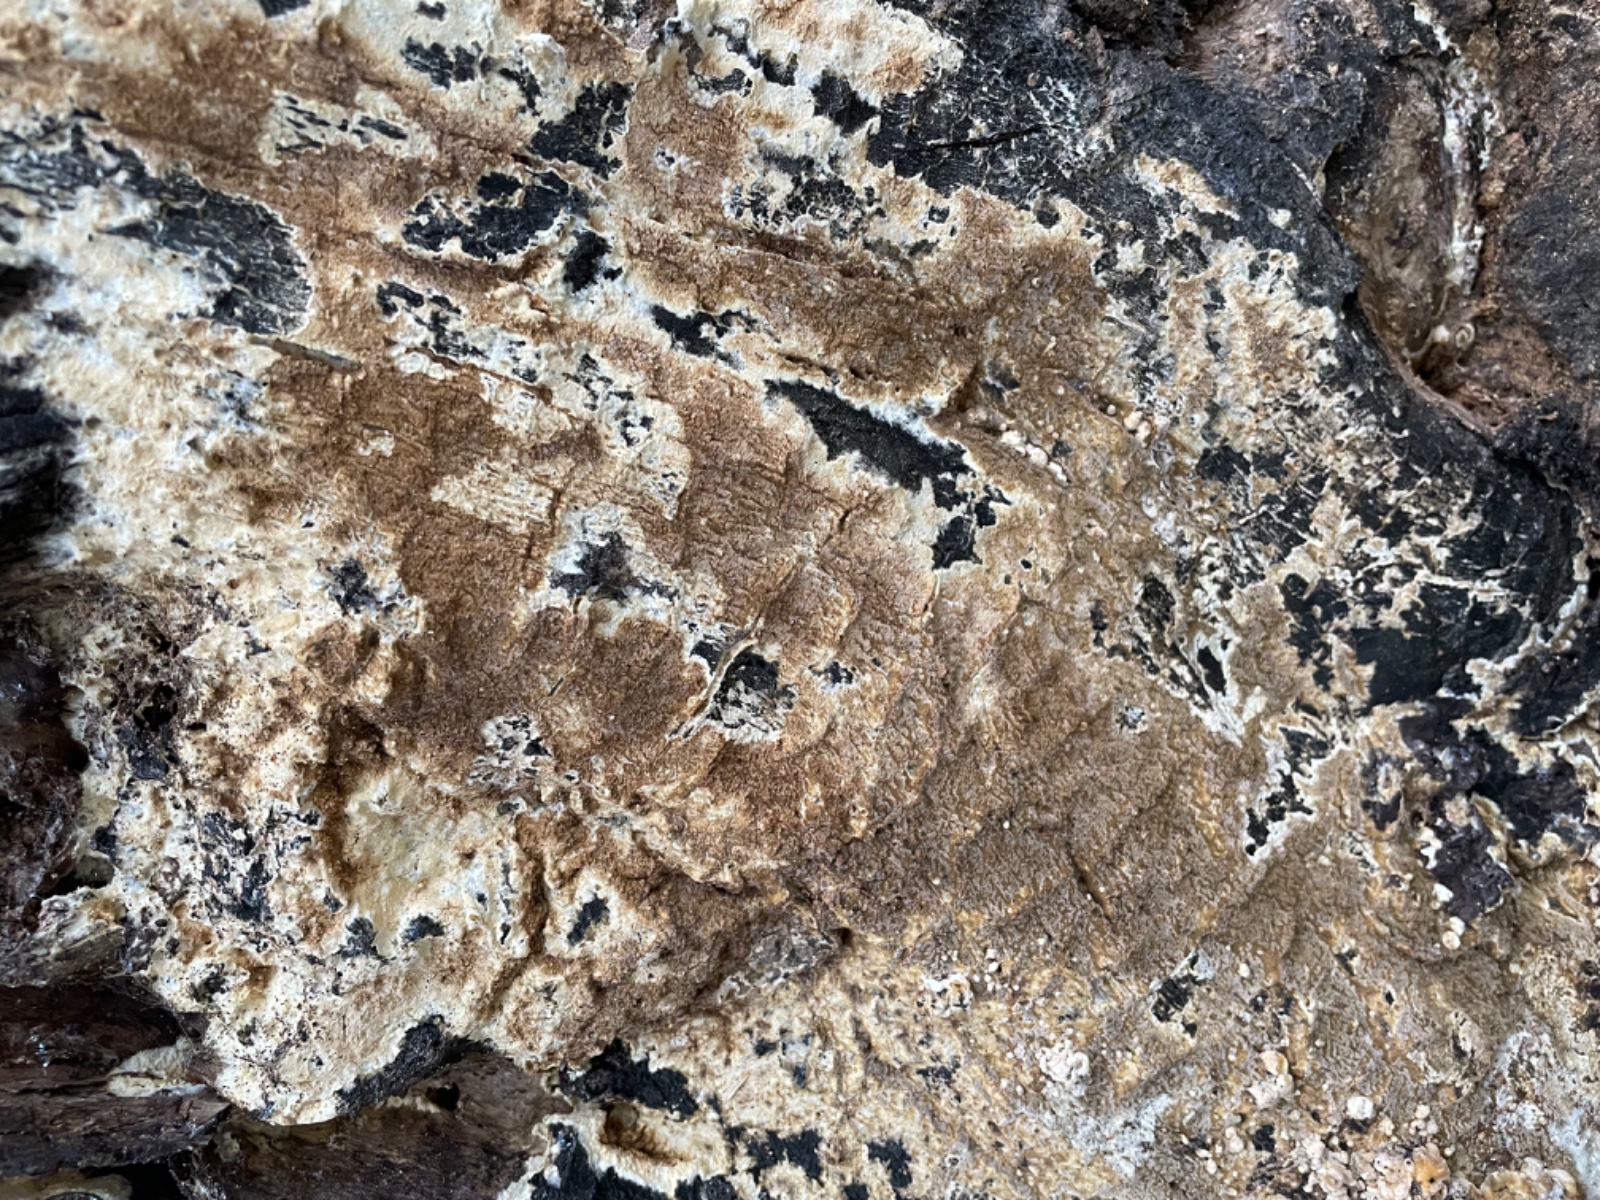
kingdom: Fungi
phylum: Basidiomycota
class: Agaricomycetes
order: Boletales
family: Coniophoraceae
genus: Coniophora
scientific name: Coniophora puteana
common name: gul tømmersvamp
